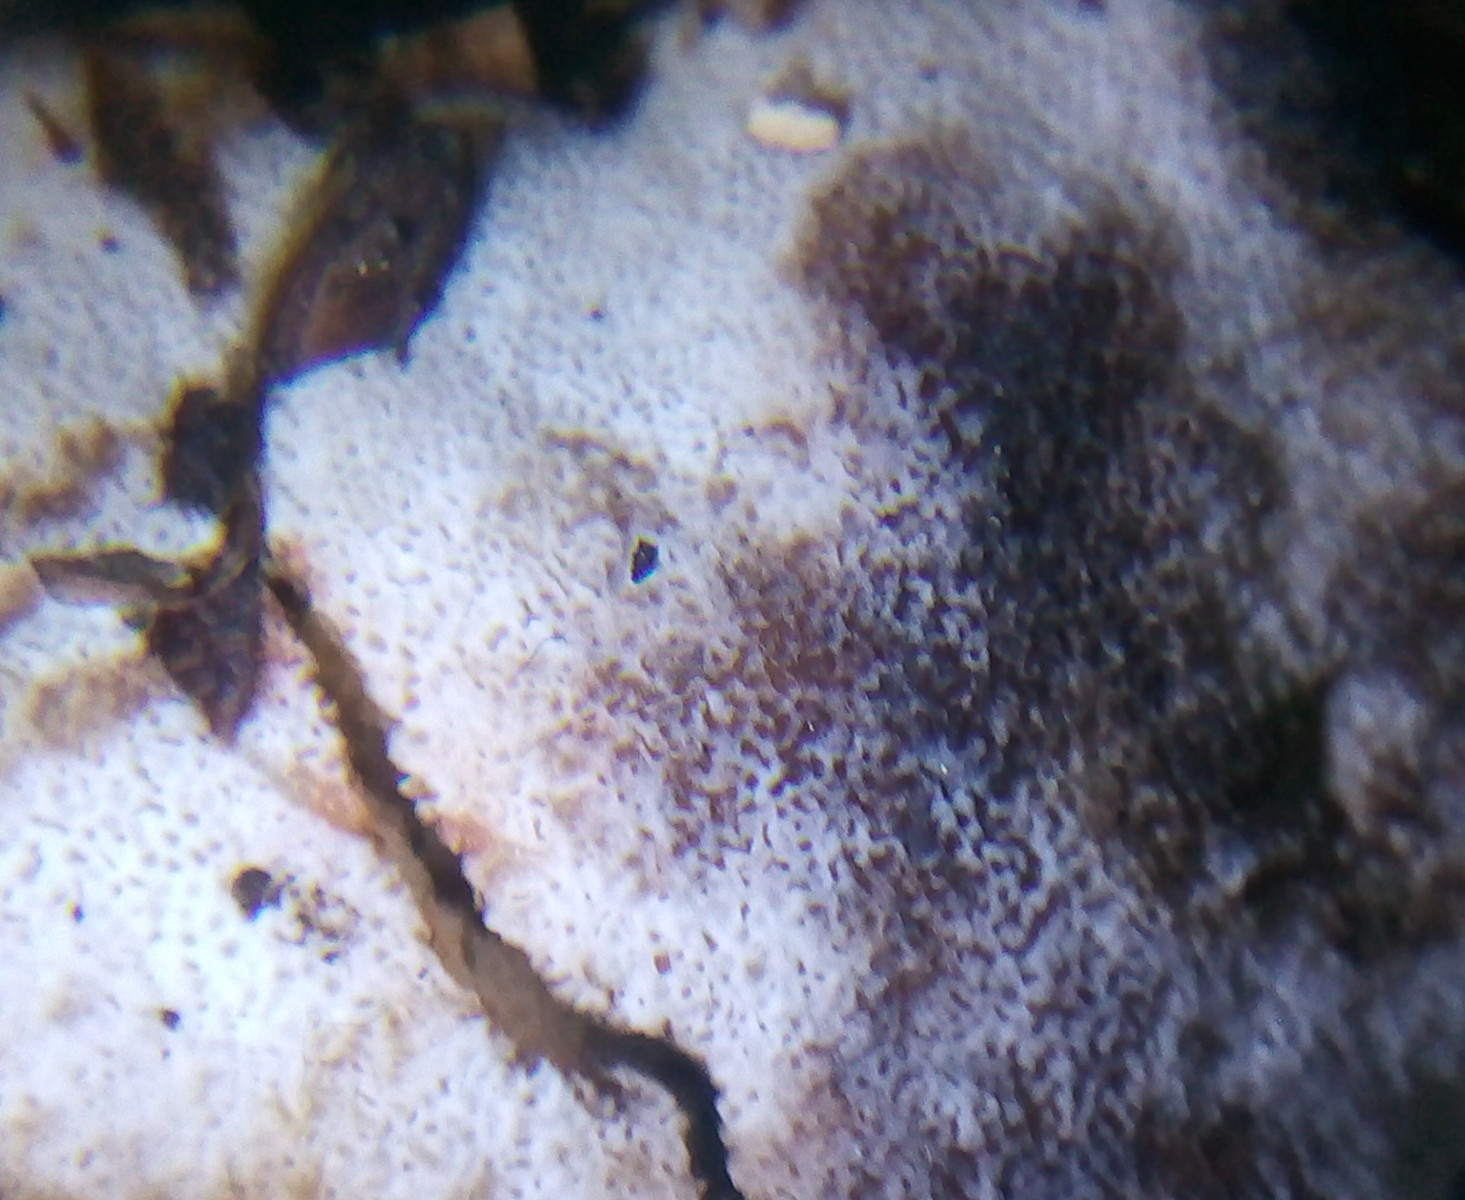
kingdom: Fungi
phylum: Basidiomycota
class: Agaricomycetes
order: Polyporales
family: Meruliaceae
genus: Physisporinus
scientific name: Physisporinus vitreus
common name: mastesvamp
